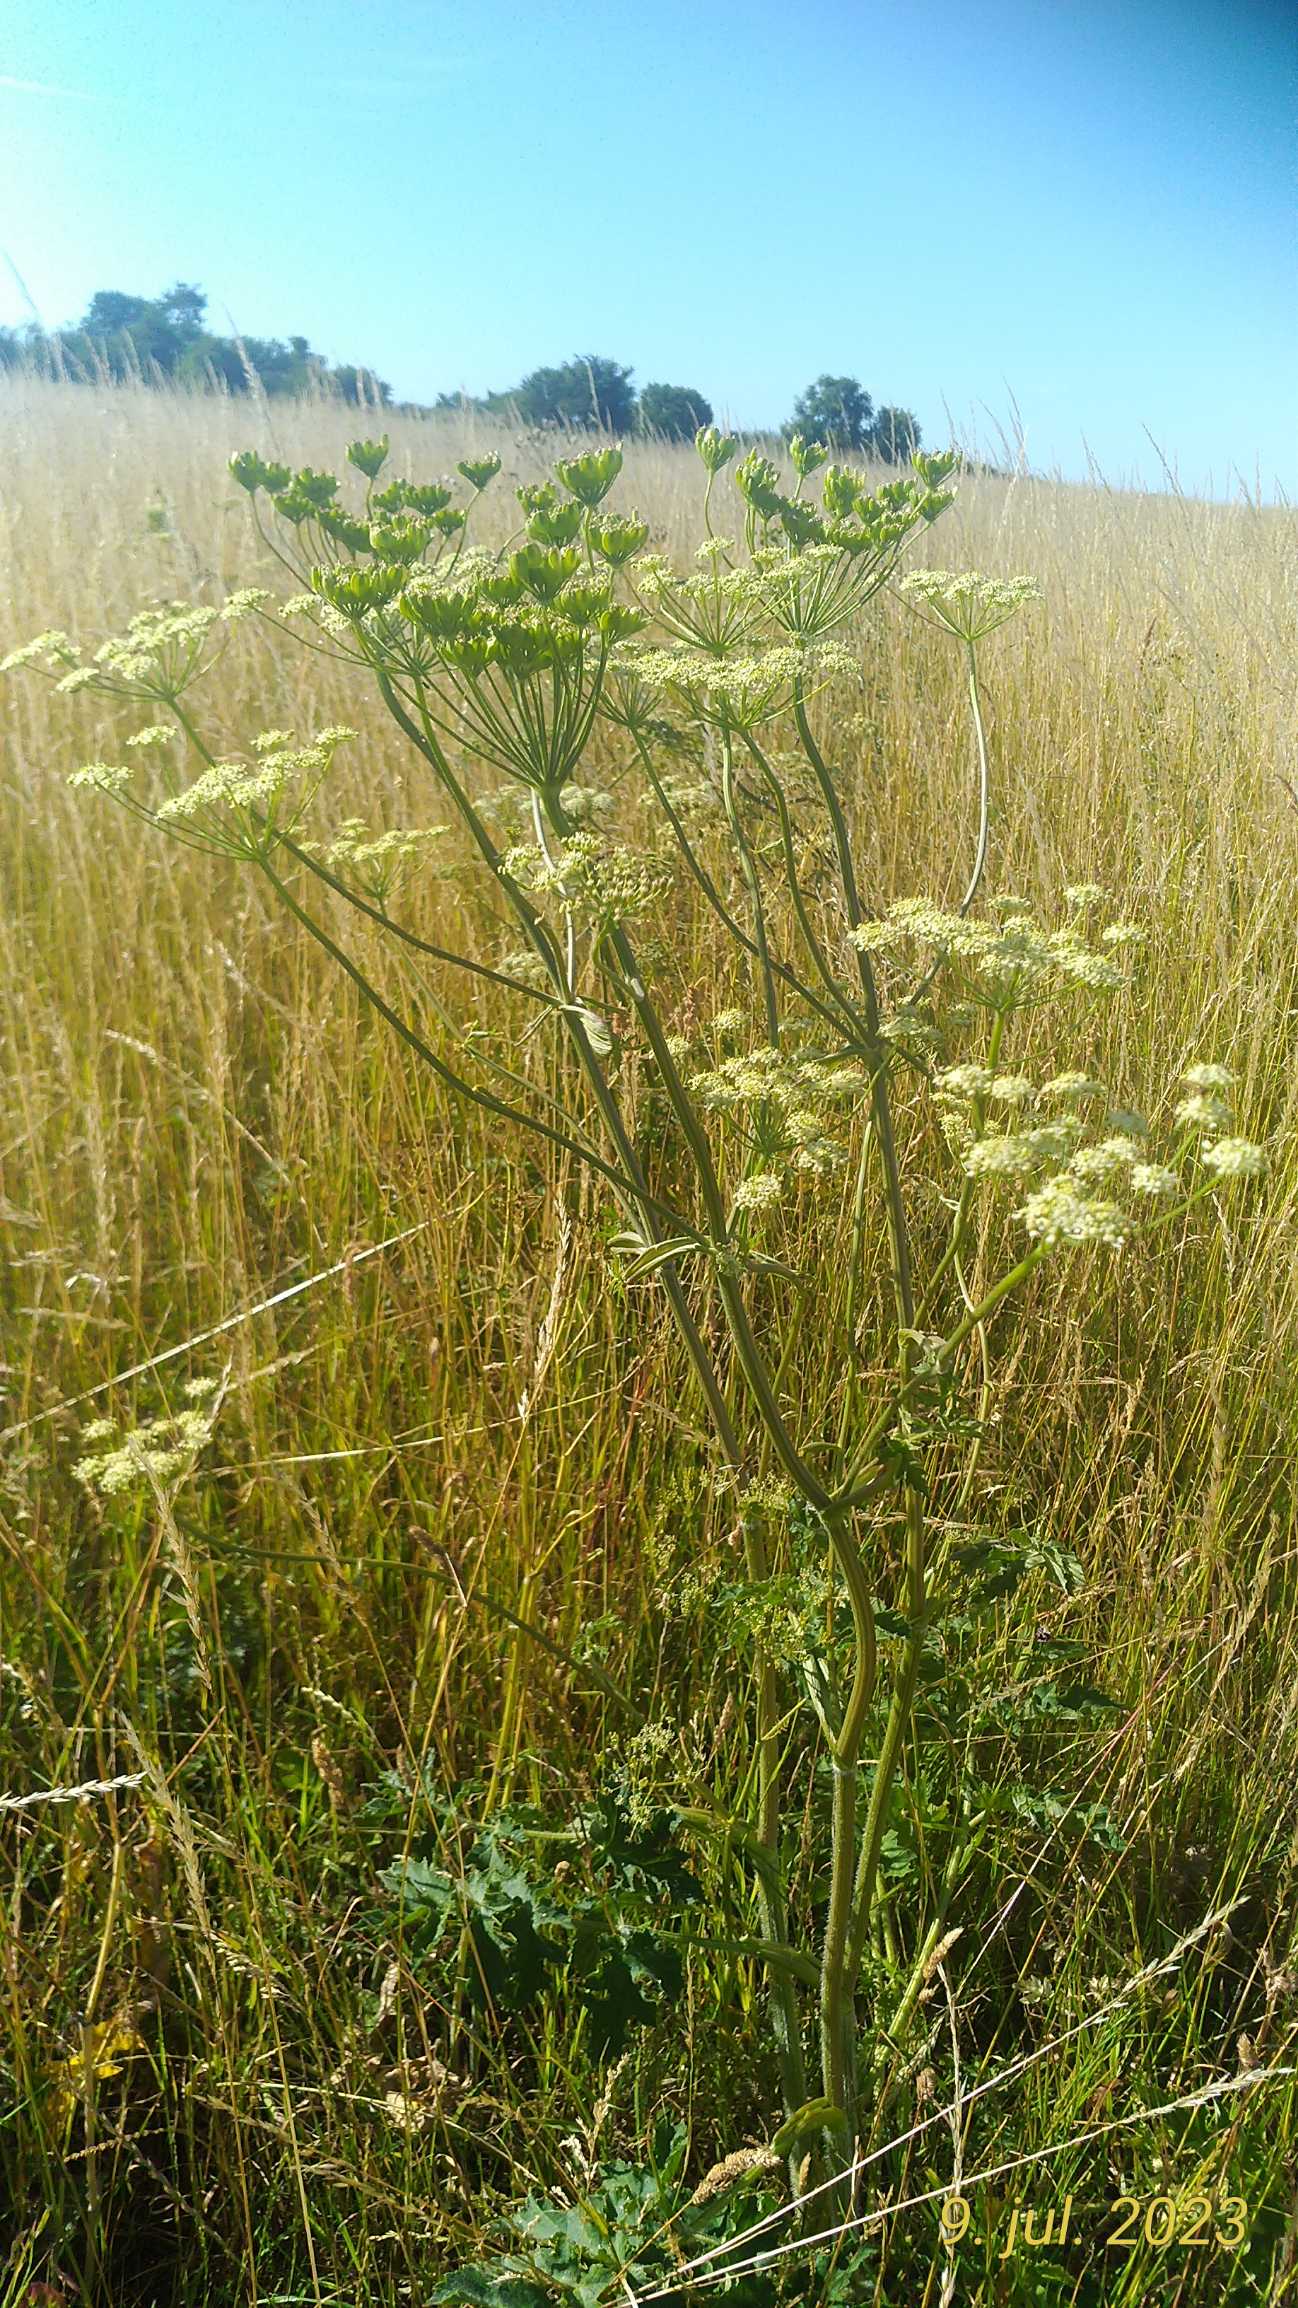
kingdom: Plantae
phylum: Tracheophyta
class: Magnoliopsida
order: Apiales
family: Apiaceae
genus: Heracleum
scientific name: Heracleum sphondylium
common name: Almindelig bjørneklo
